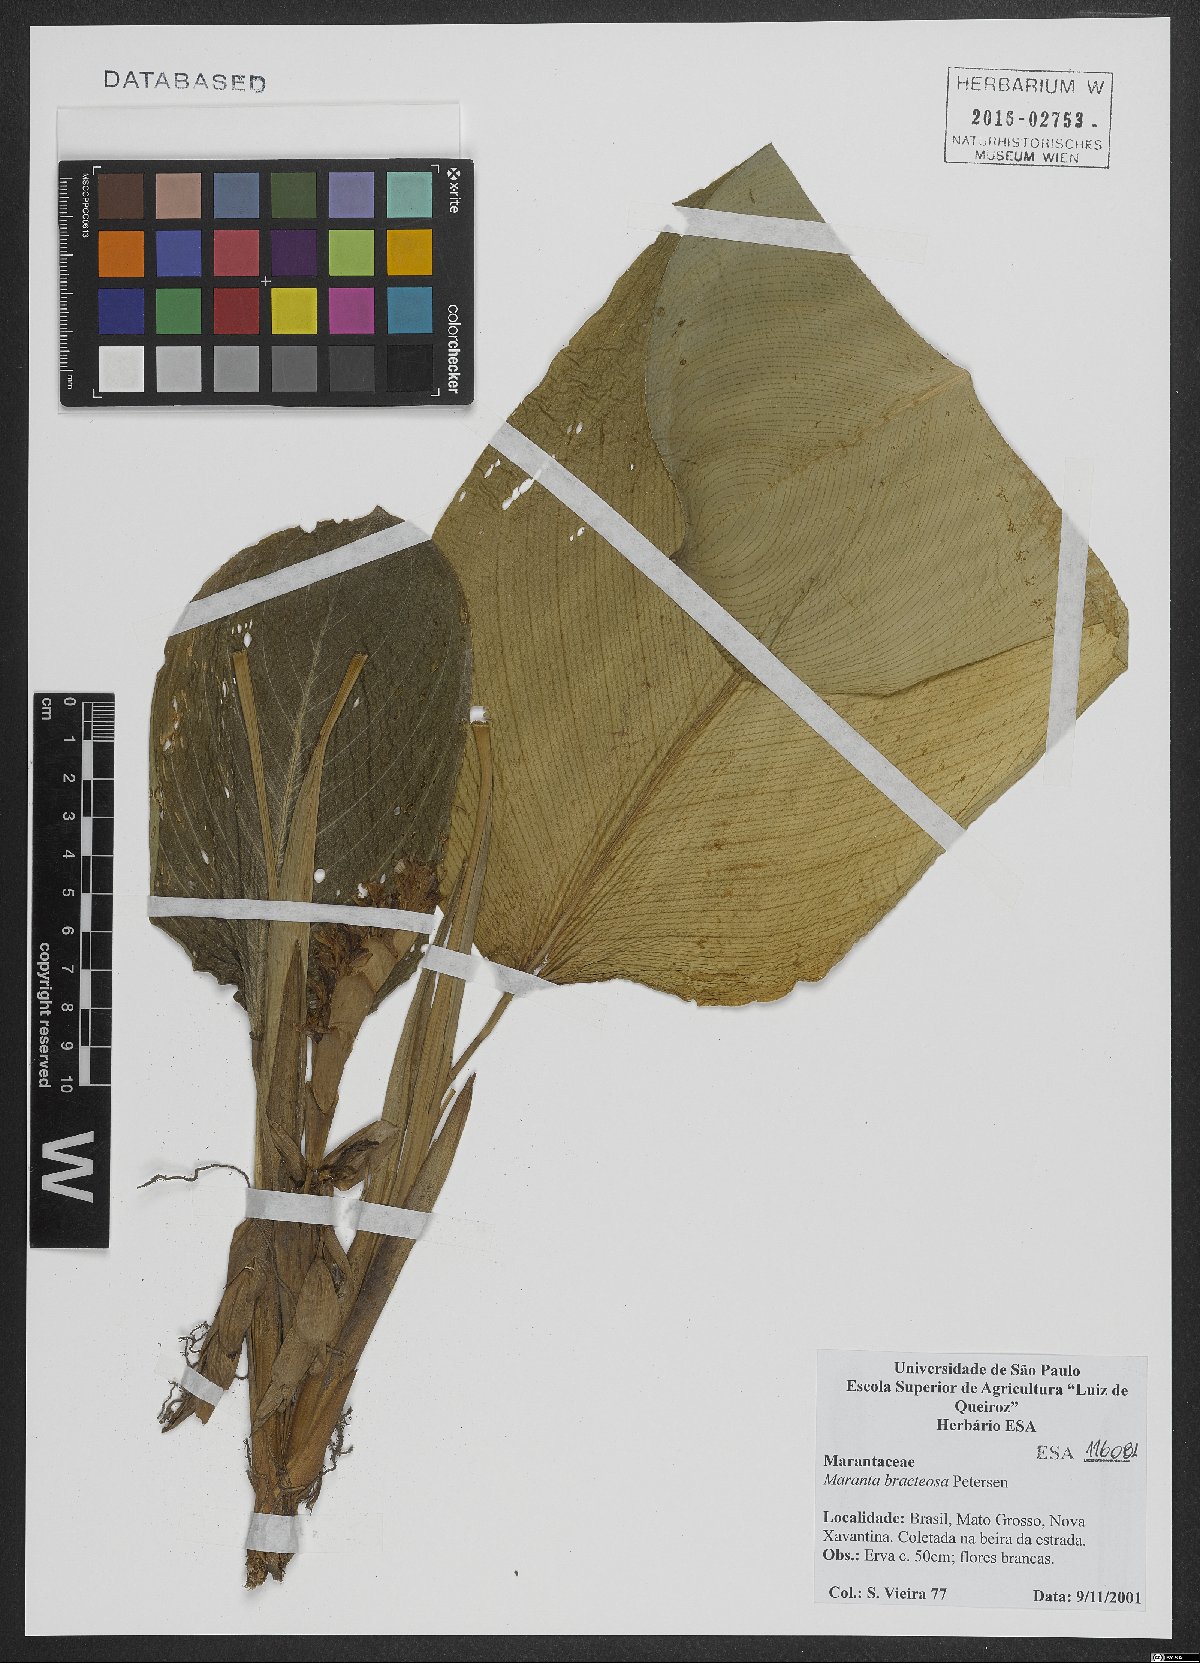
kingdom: Plantae
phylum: Tracheophyta
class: Liliopsida
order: Zingiberales
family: Marantaceae
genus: Maranta
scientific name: Maranta bracteosa
